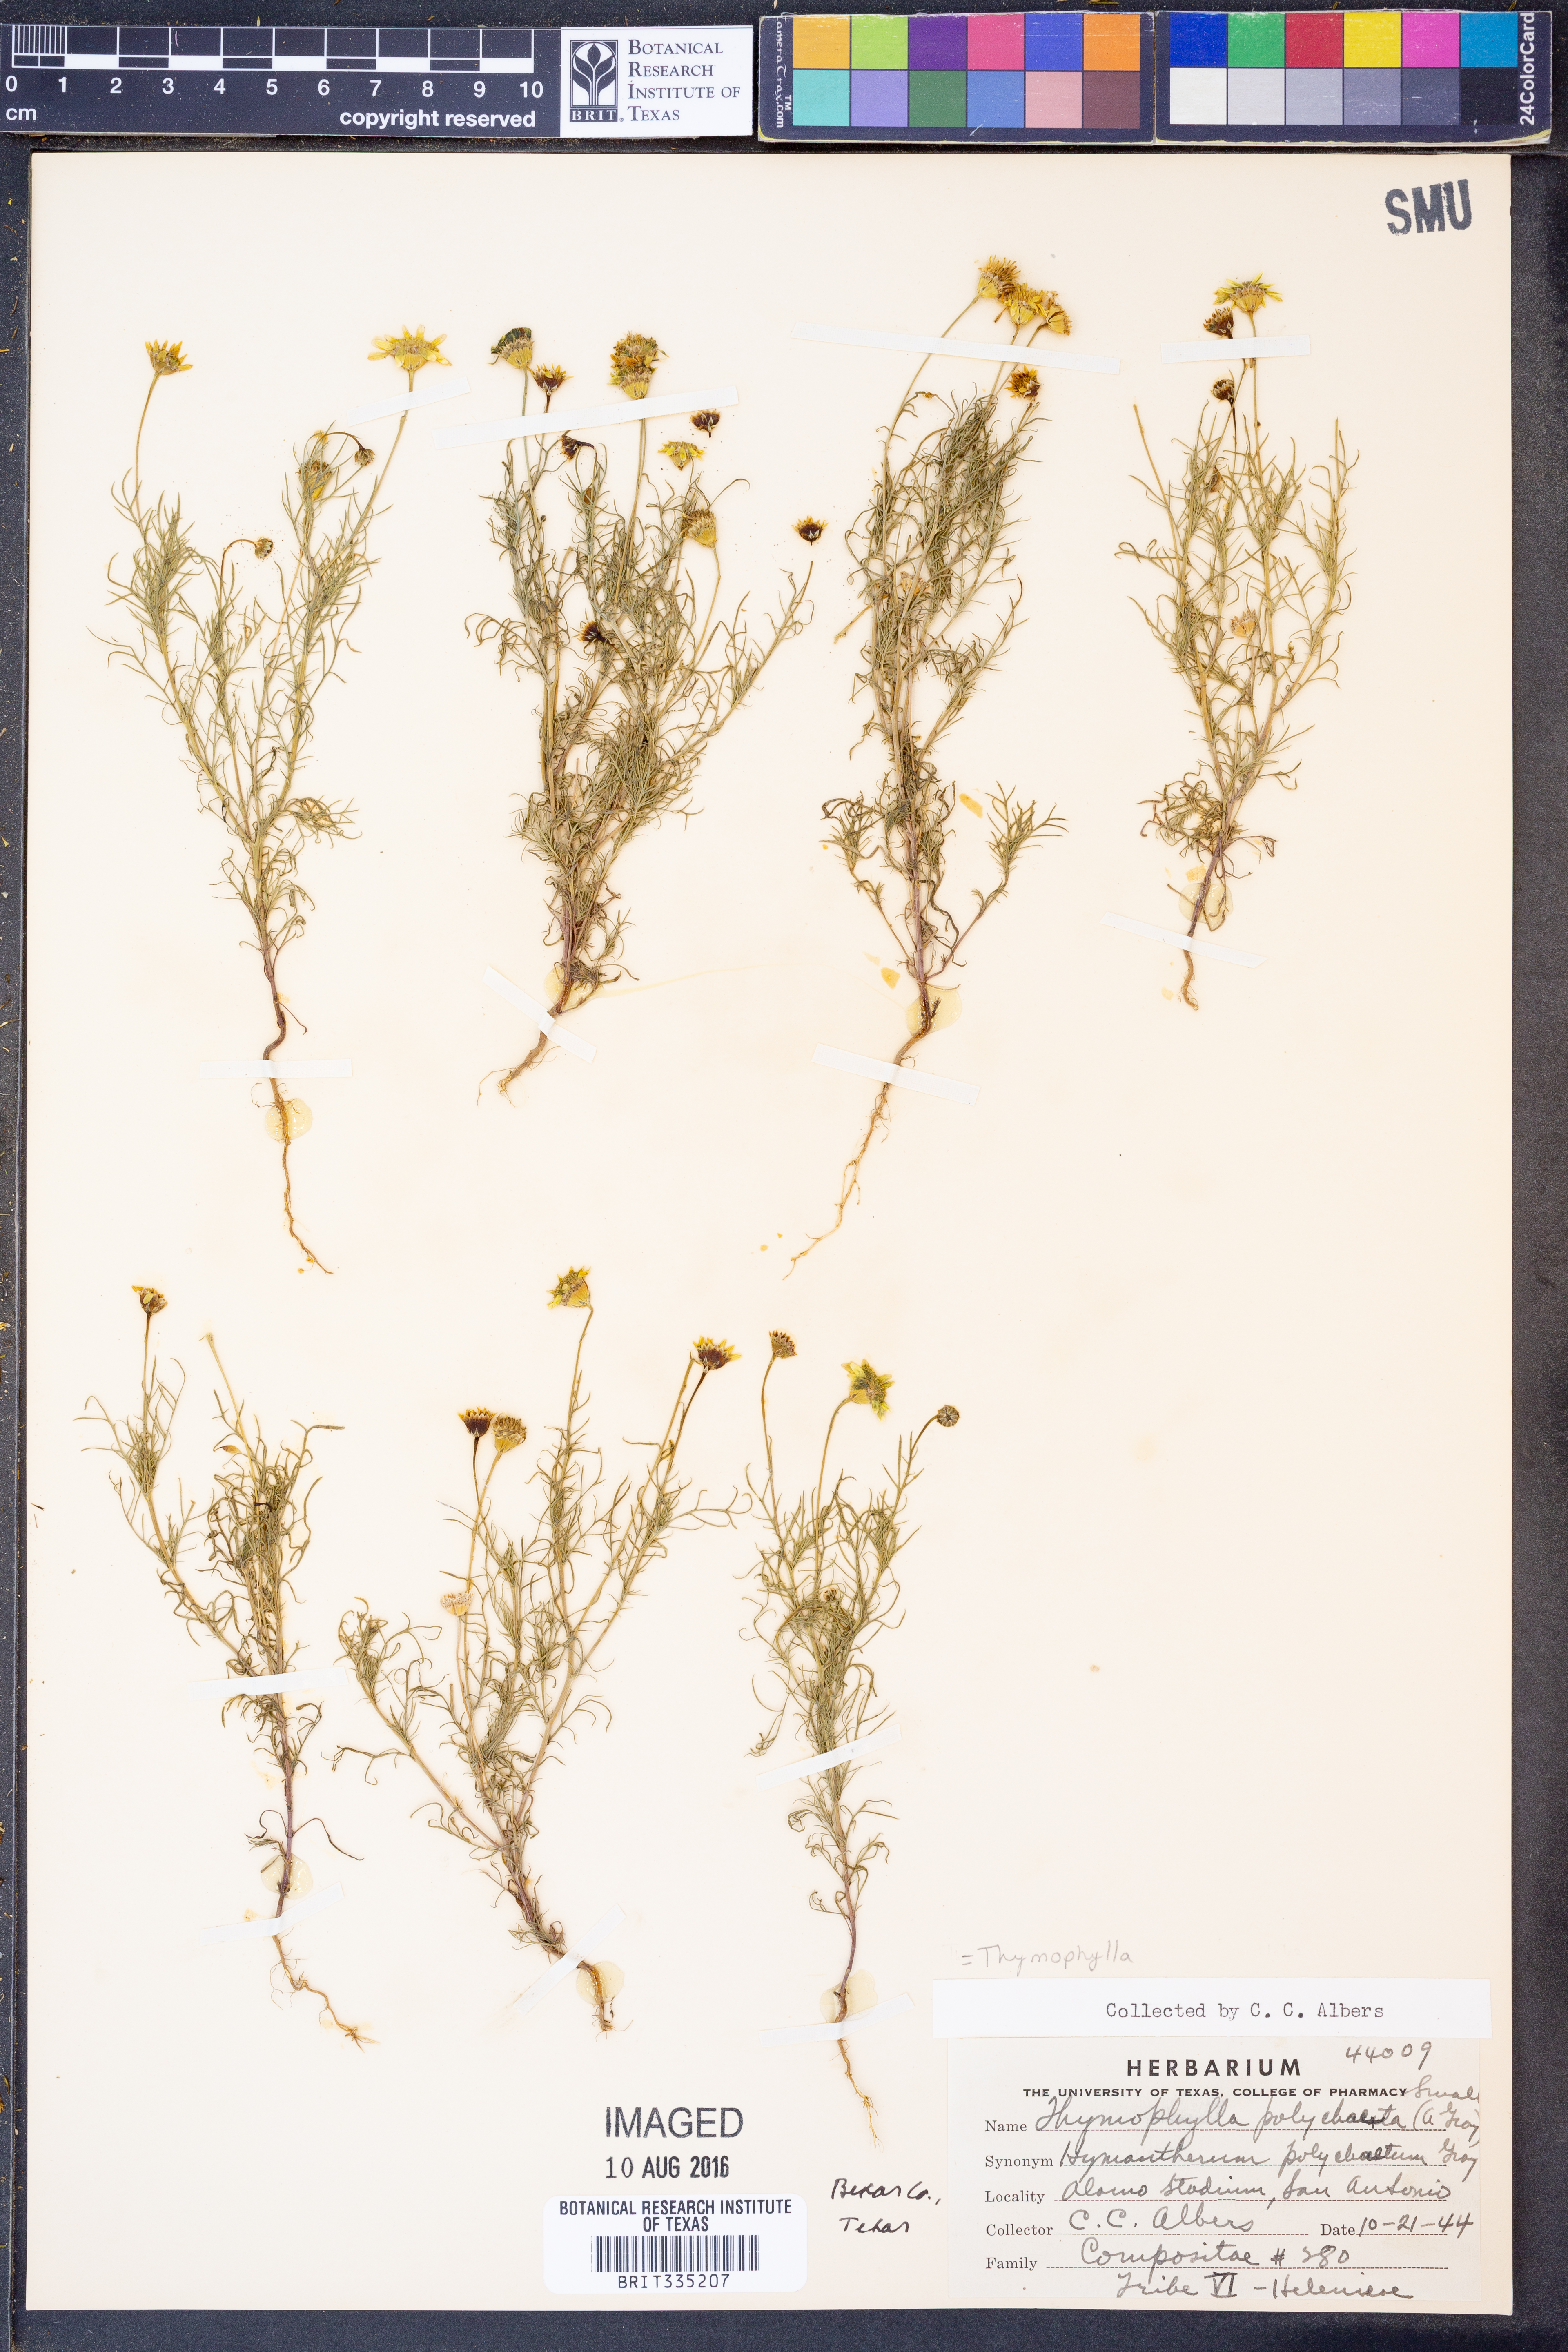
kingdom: Plantae
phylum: Tracheophyta
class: Magnoliopsida
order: Asterales
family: Asteraceae
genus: Thymophylla
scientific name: Thymophylla aurea
